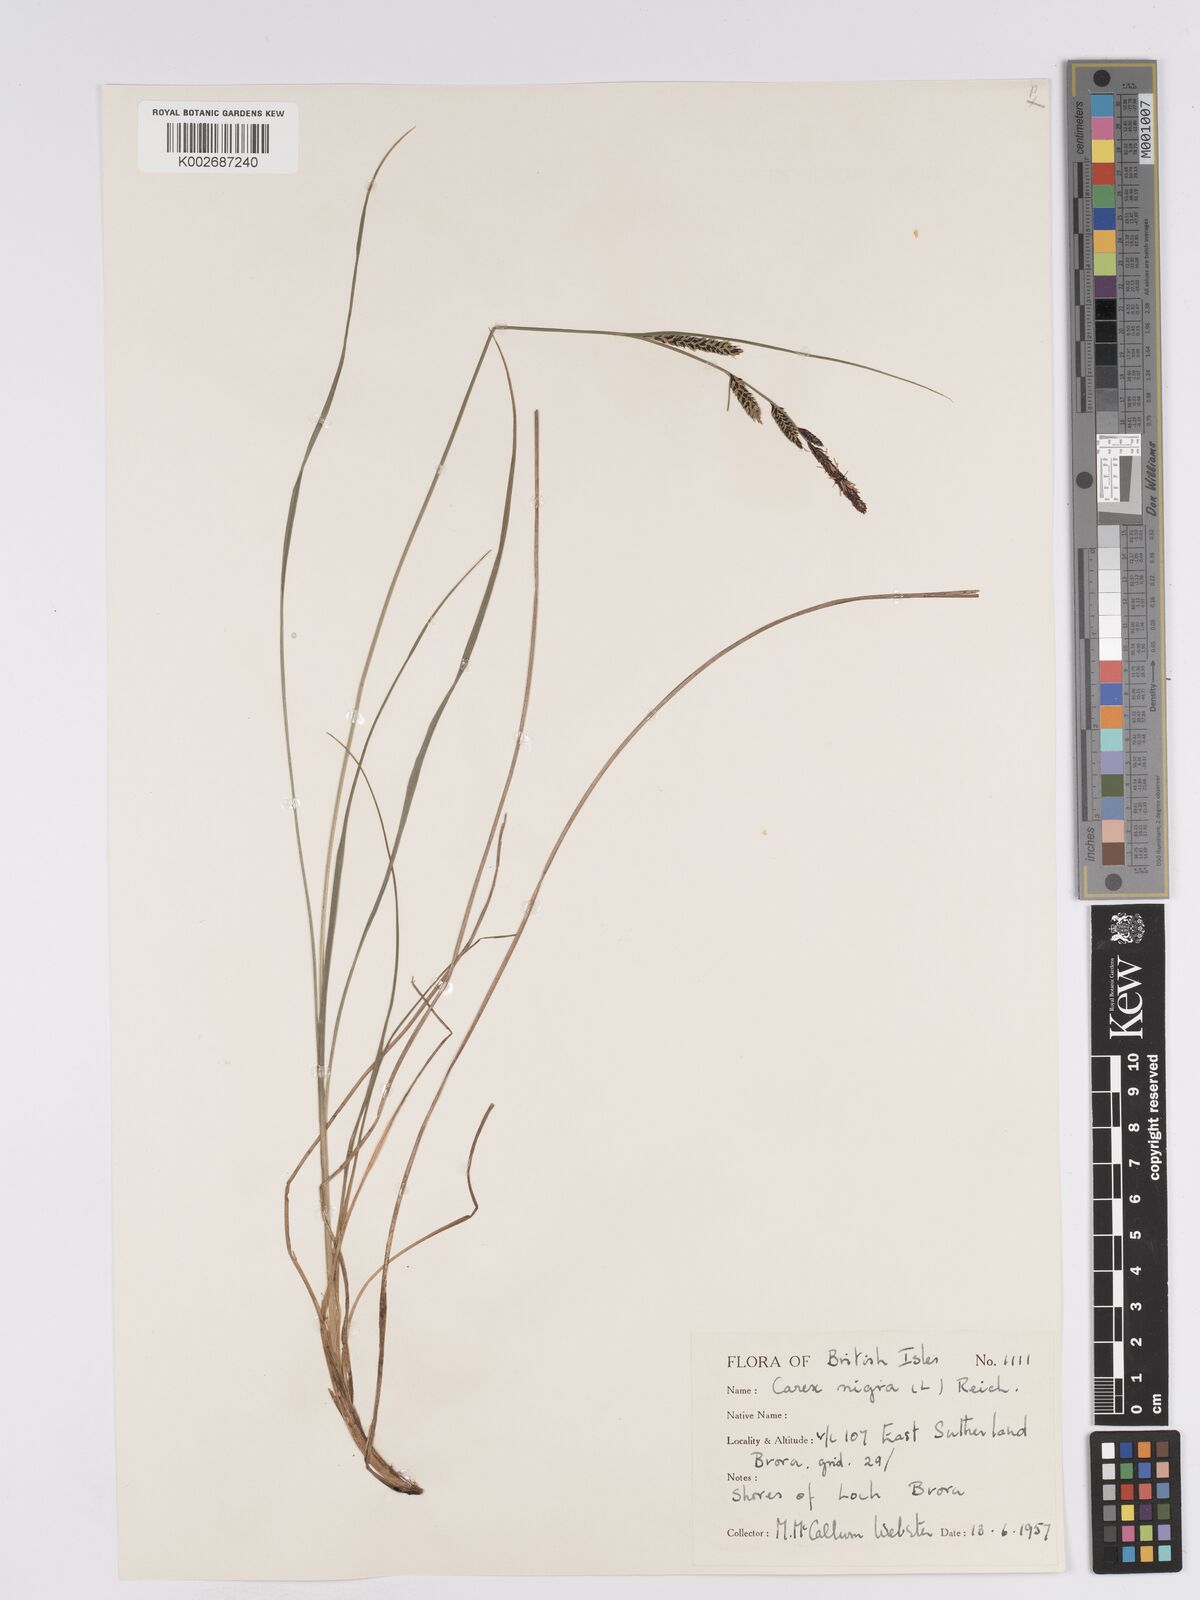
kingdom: Plantae
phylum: Tracheophyta
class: Liliopsida
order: Poales
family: Cyperaceae
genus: Carex
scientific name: Carex nigra
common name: Common sedge
